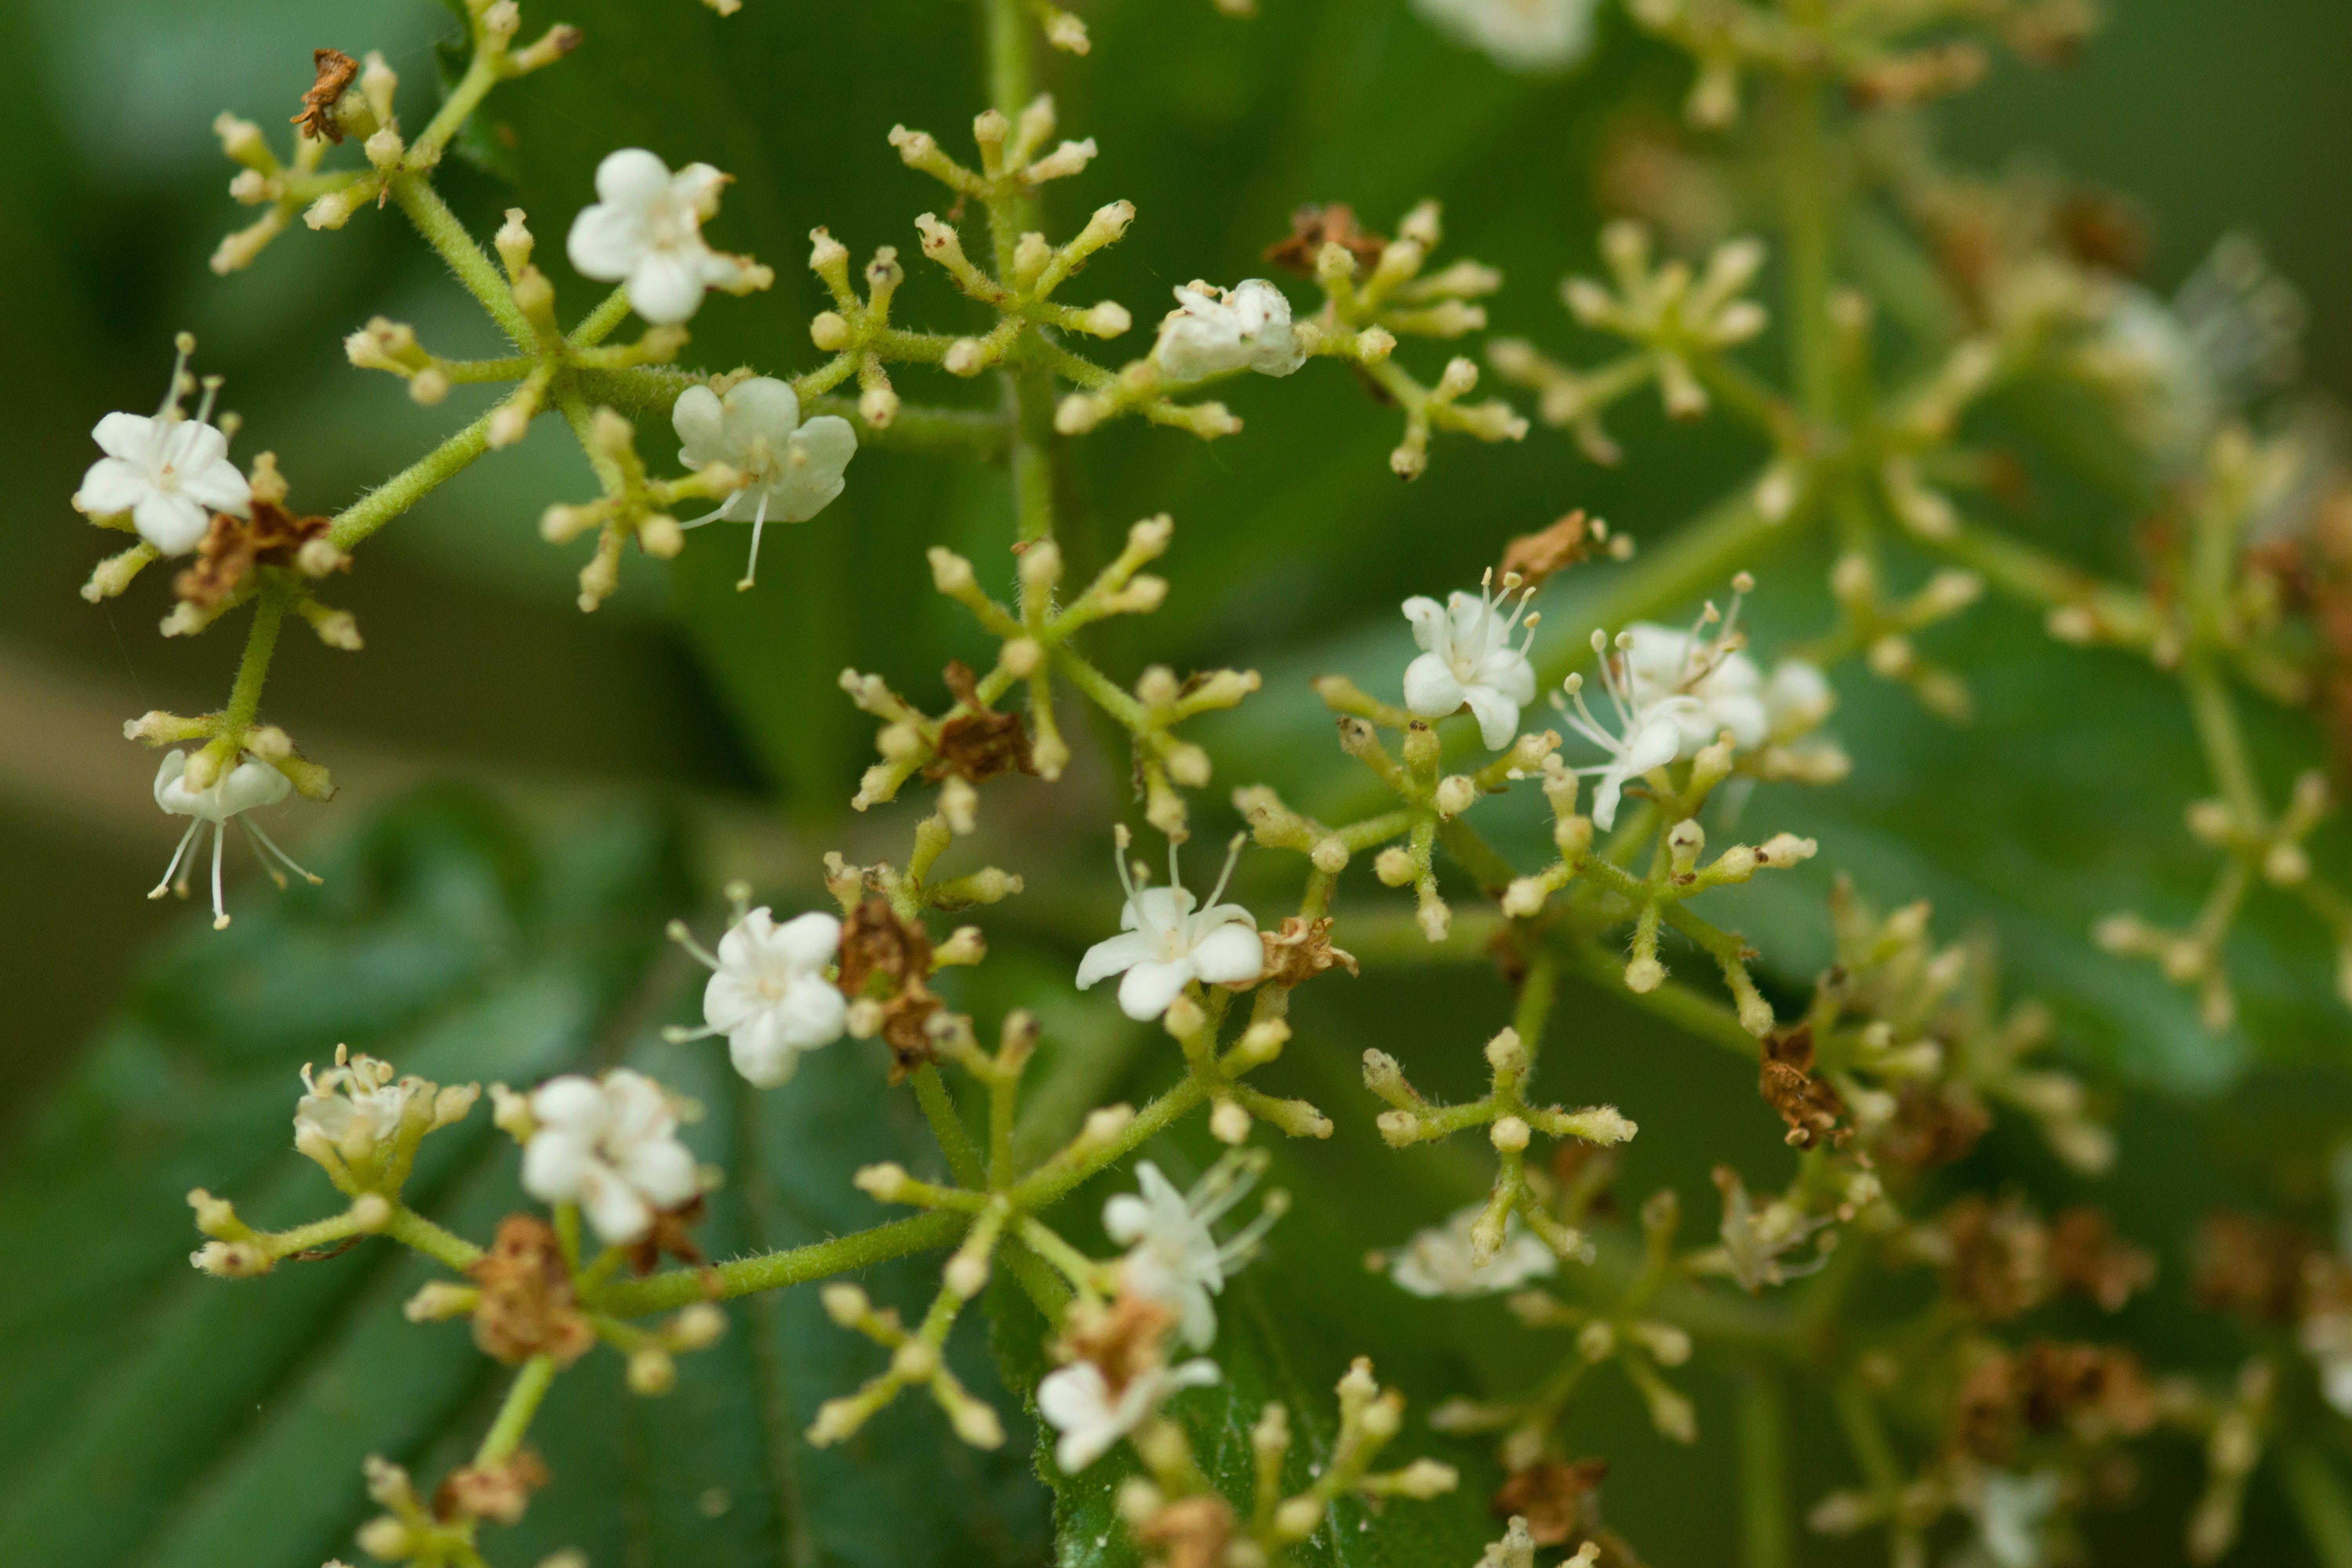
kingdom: Plantae
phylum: Tracheophyta
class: Magnoliopsida
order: Dipsacales
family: Viburnaceae
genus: Viburnum
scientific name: Viburnum dilatatum
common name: Linden arrowwood
